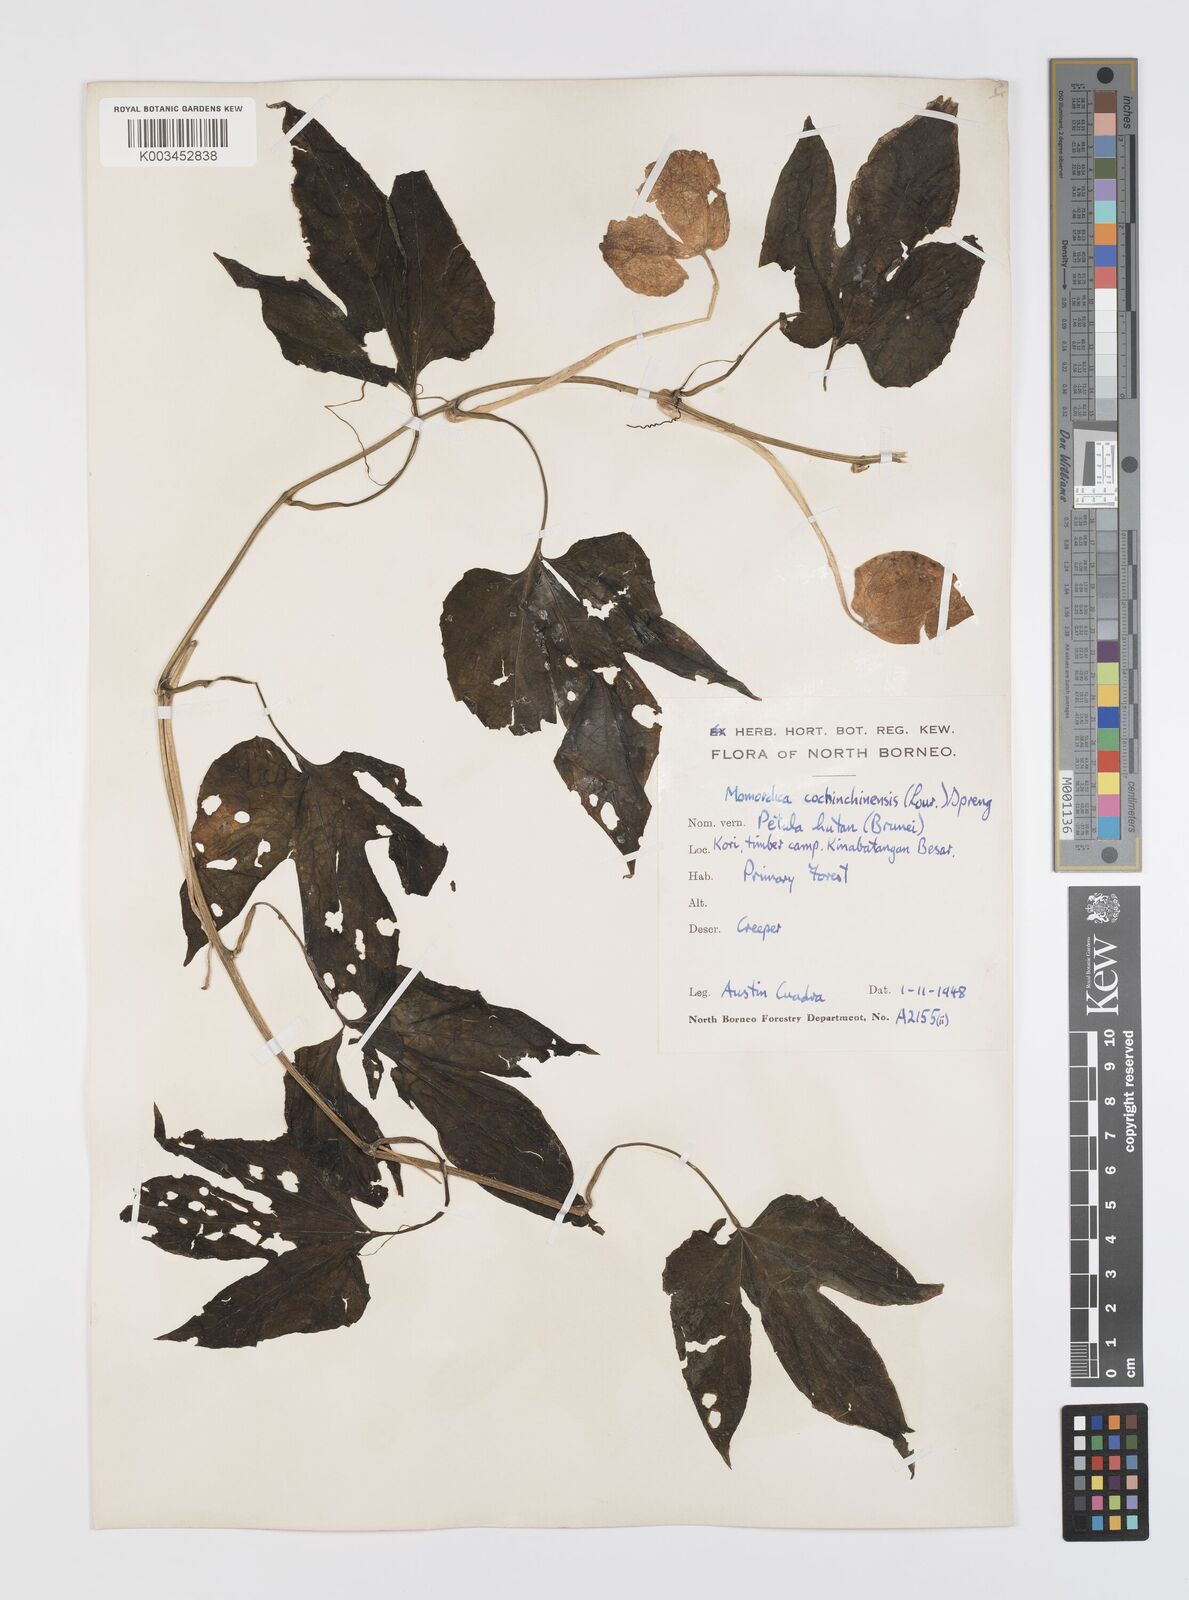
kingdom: Plantae
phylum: Tracheophyta
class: Magnoliopsida
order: Cucurbitales
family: Cucurbitaceae
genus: Momordica
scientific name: Momordica cochinchinensis
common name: Chinese bitter-cucumber
